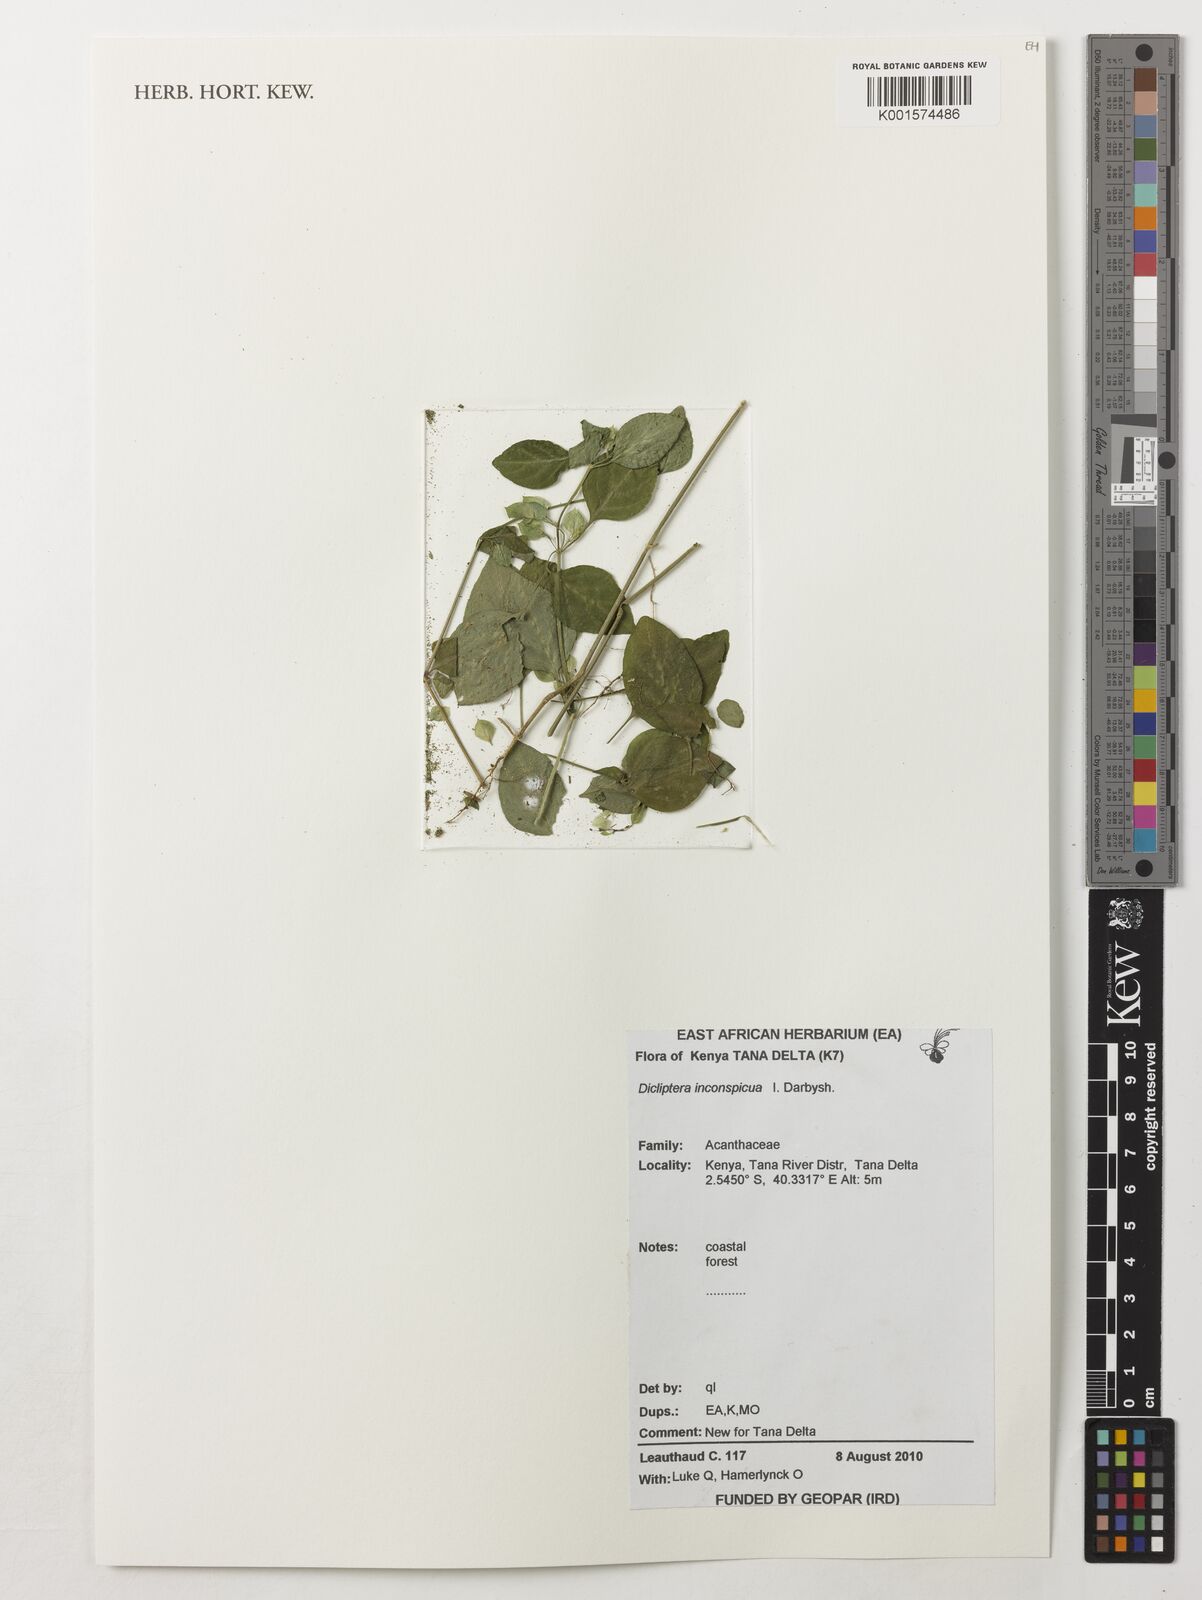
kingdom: Plantae
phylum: Tracheophyta
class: Magnoliopsida
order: Lamiales
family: Acanthaceae
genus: Dicliptera
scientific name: Dicliptera inconspicua
